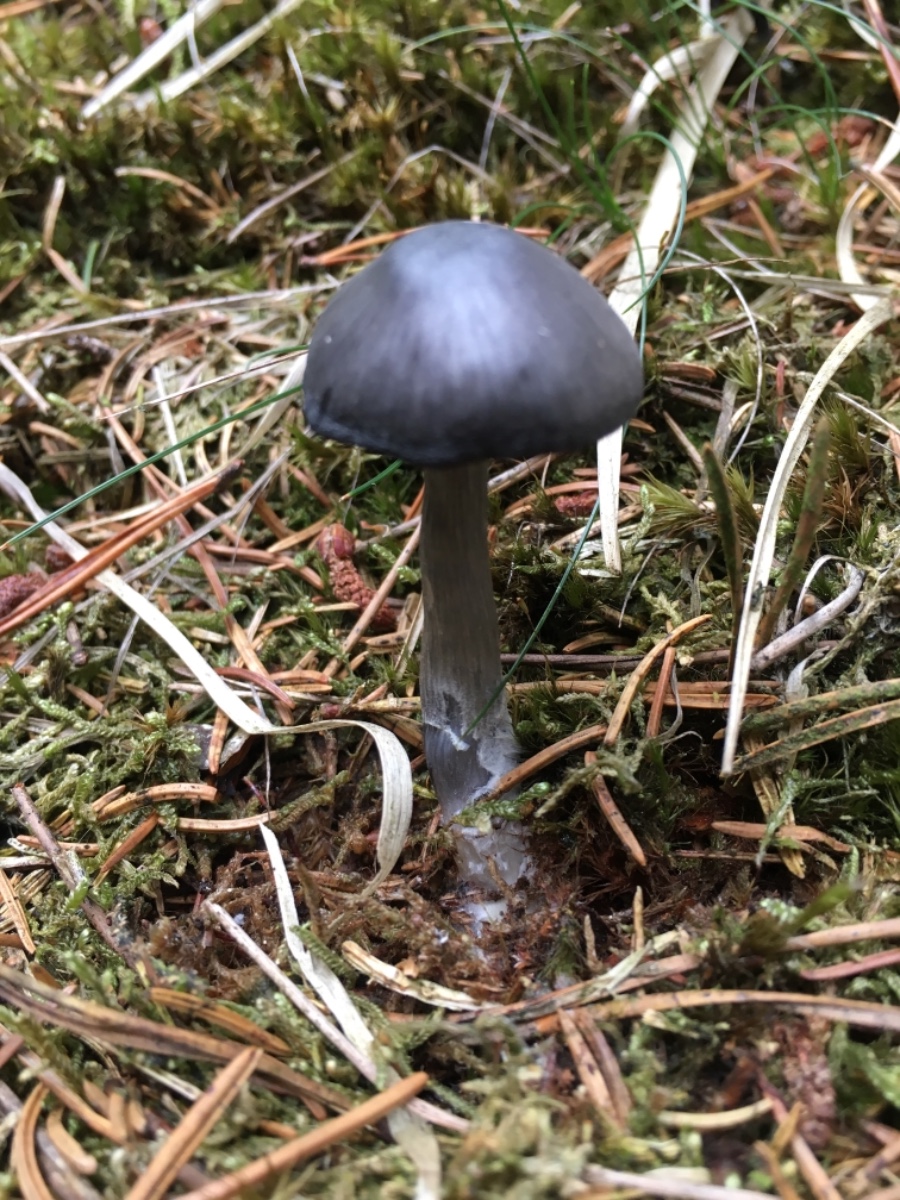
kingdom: Fungi
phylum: Basidiomycota
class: Agaricomycetes
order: Agaricales
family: Entolomataceae
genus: Entocybe
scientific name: Entocybe nitida
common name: stålblå rødblad
